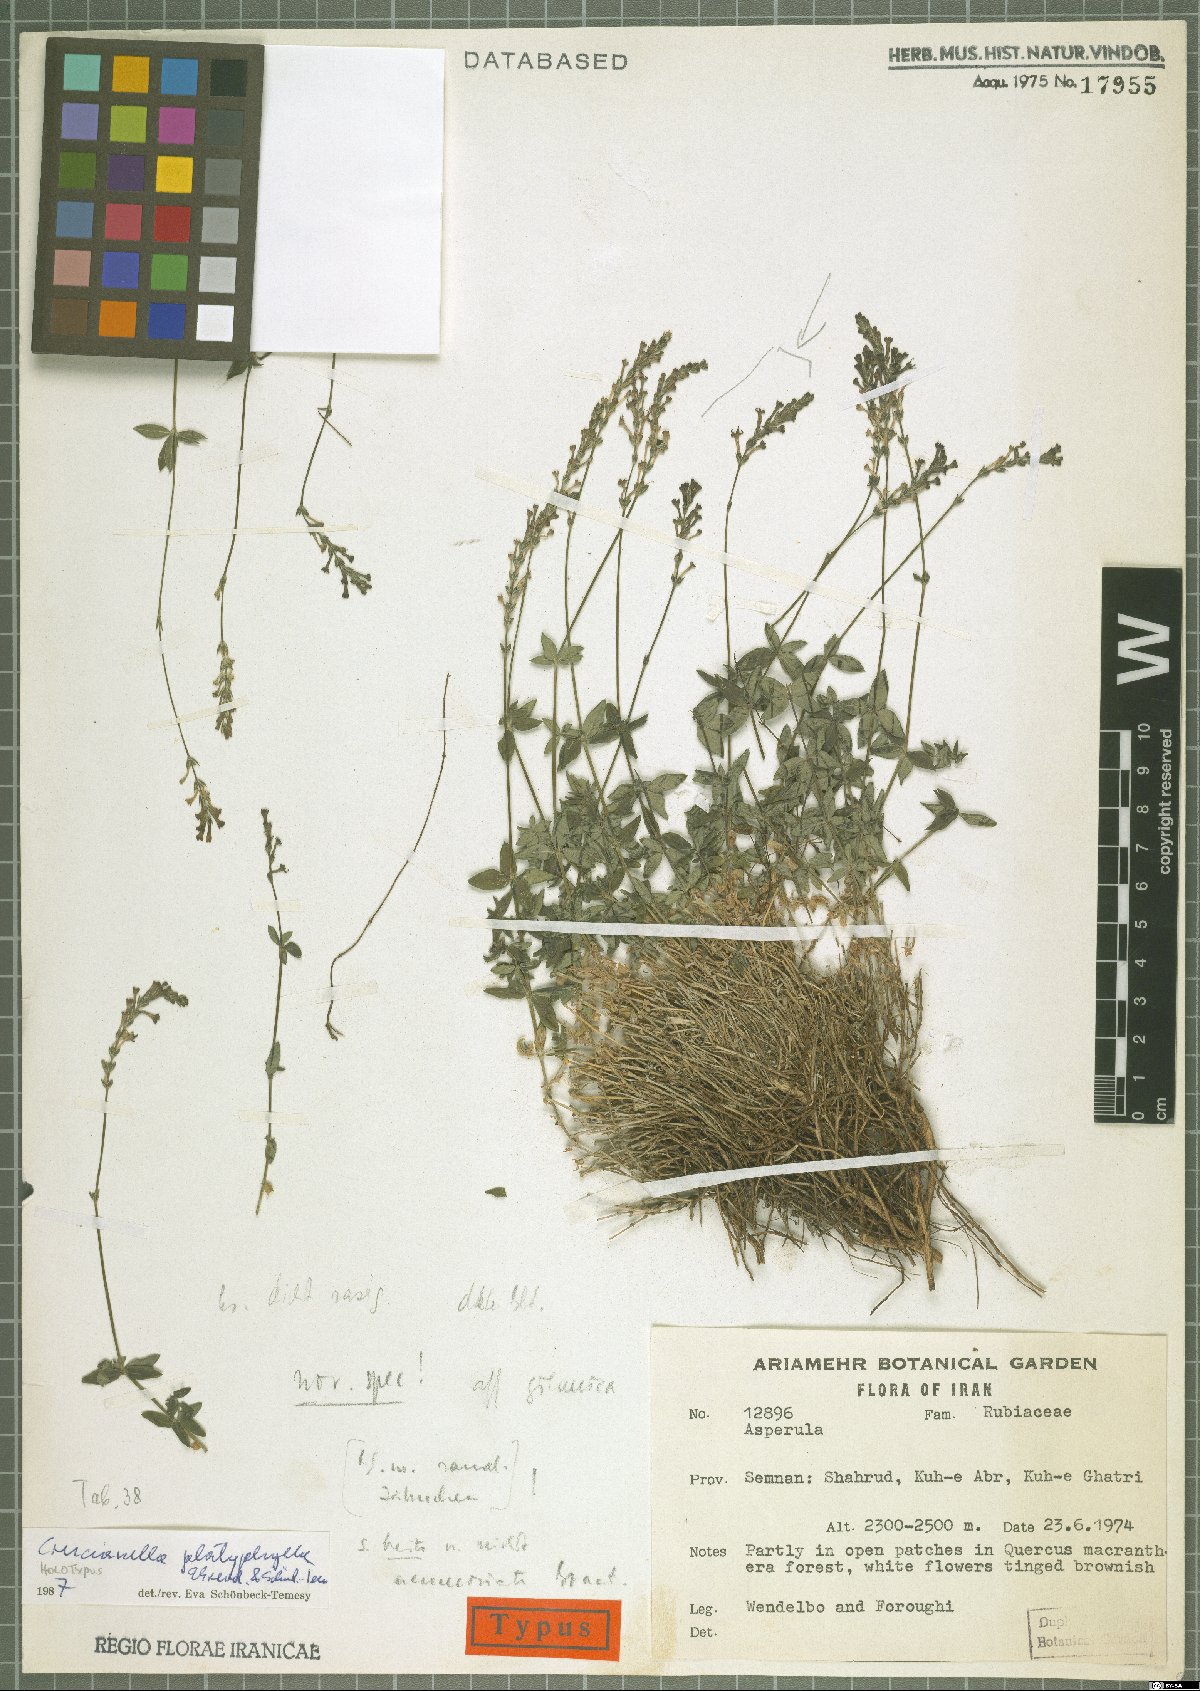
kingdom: Plantae
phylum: Tracheophyta
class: Magnoliopsida
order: Gentianales
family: Rubiaceae
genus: Crucianella
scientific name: Crucianella platyphylla
